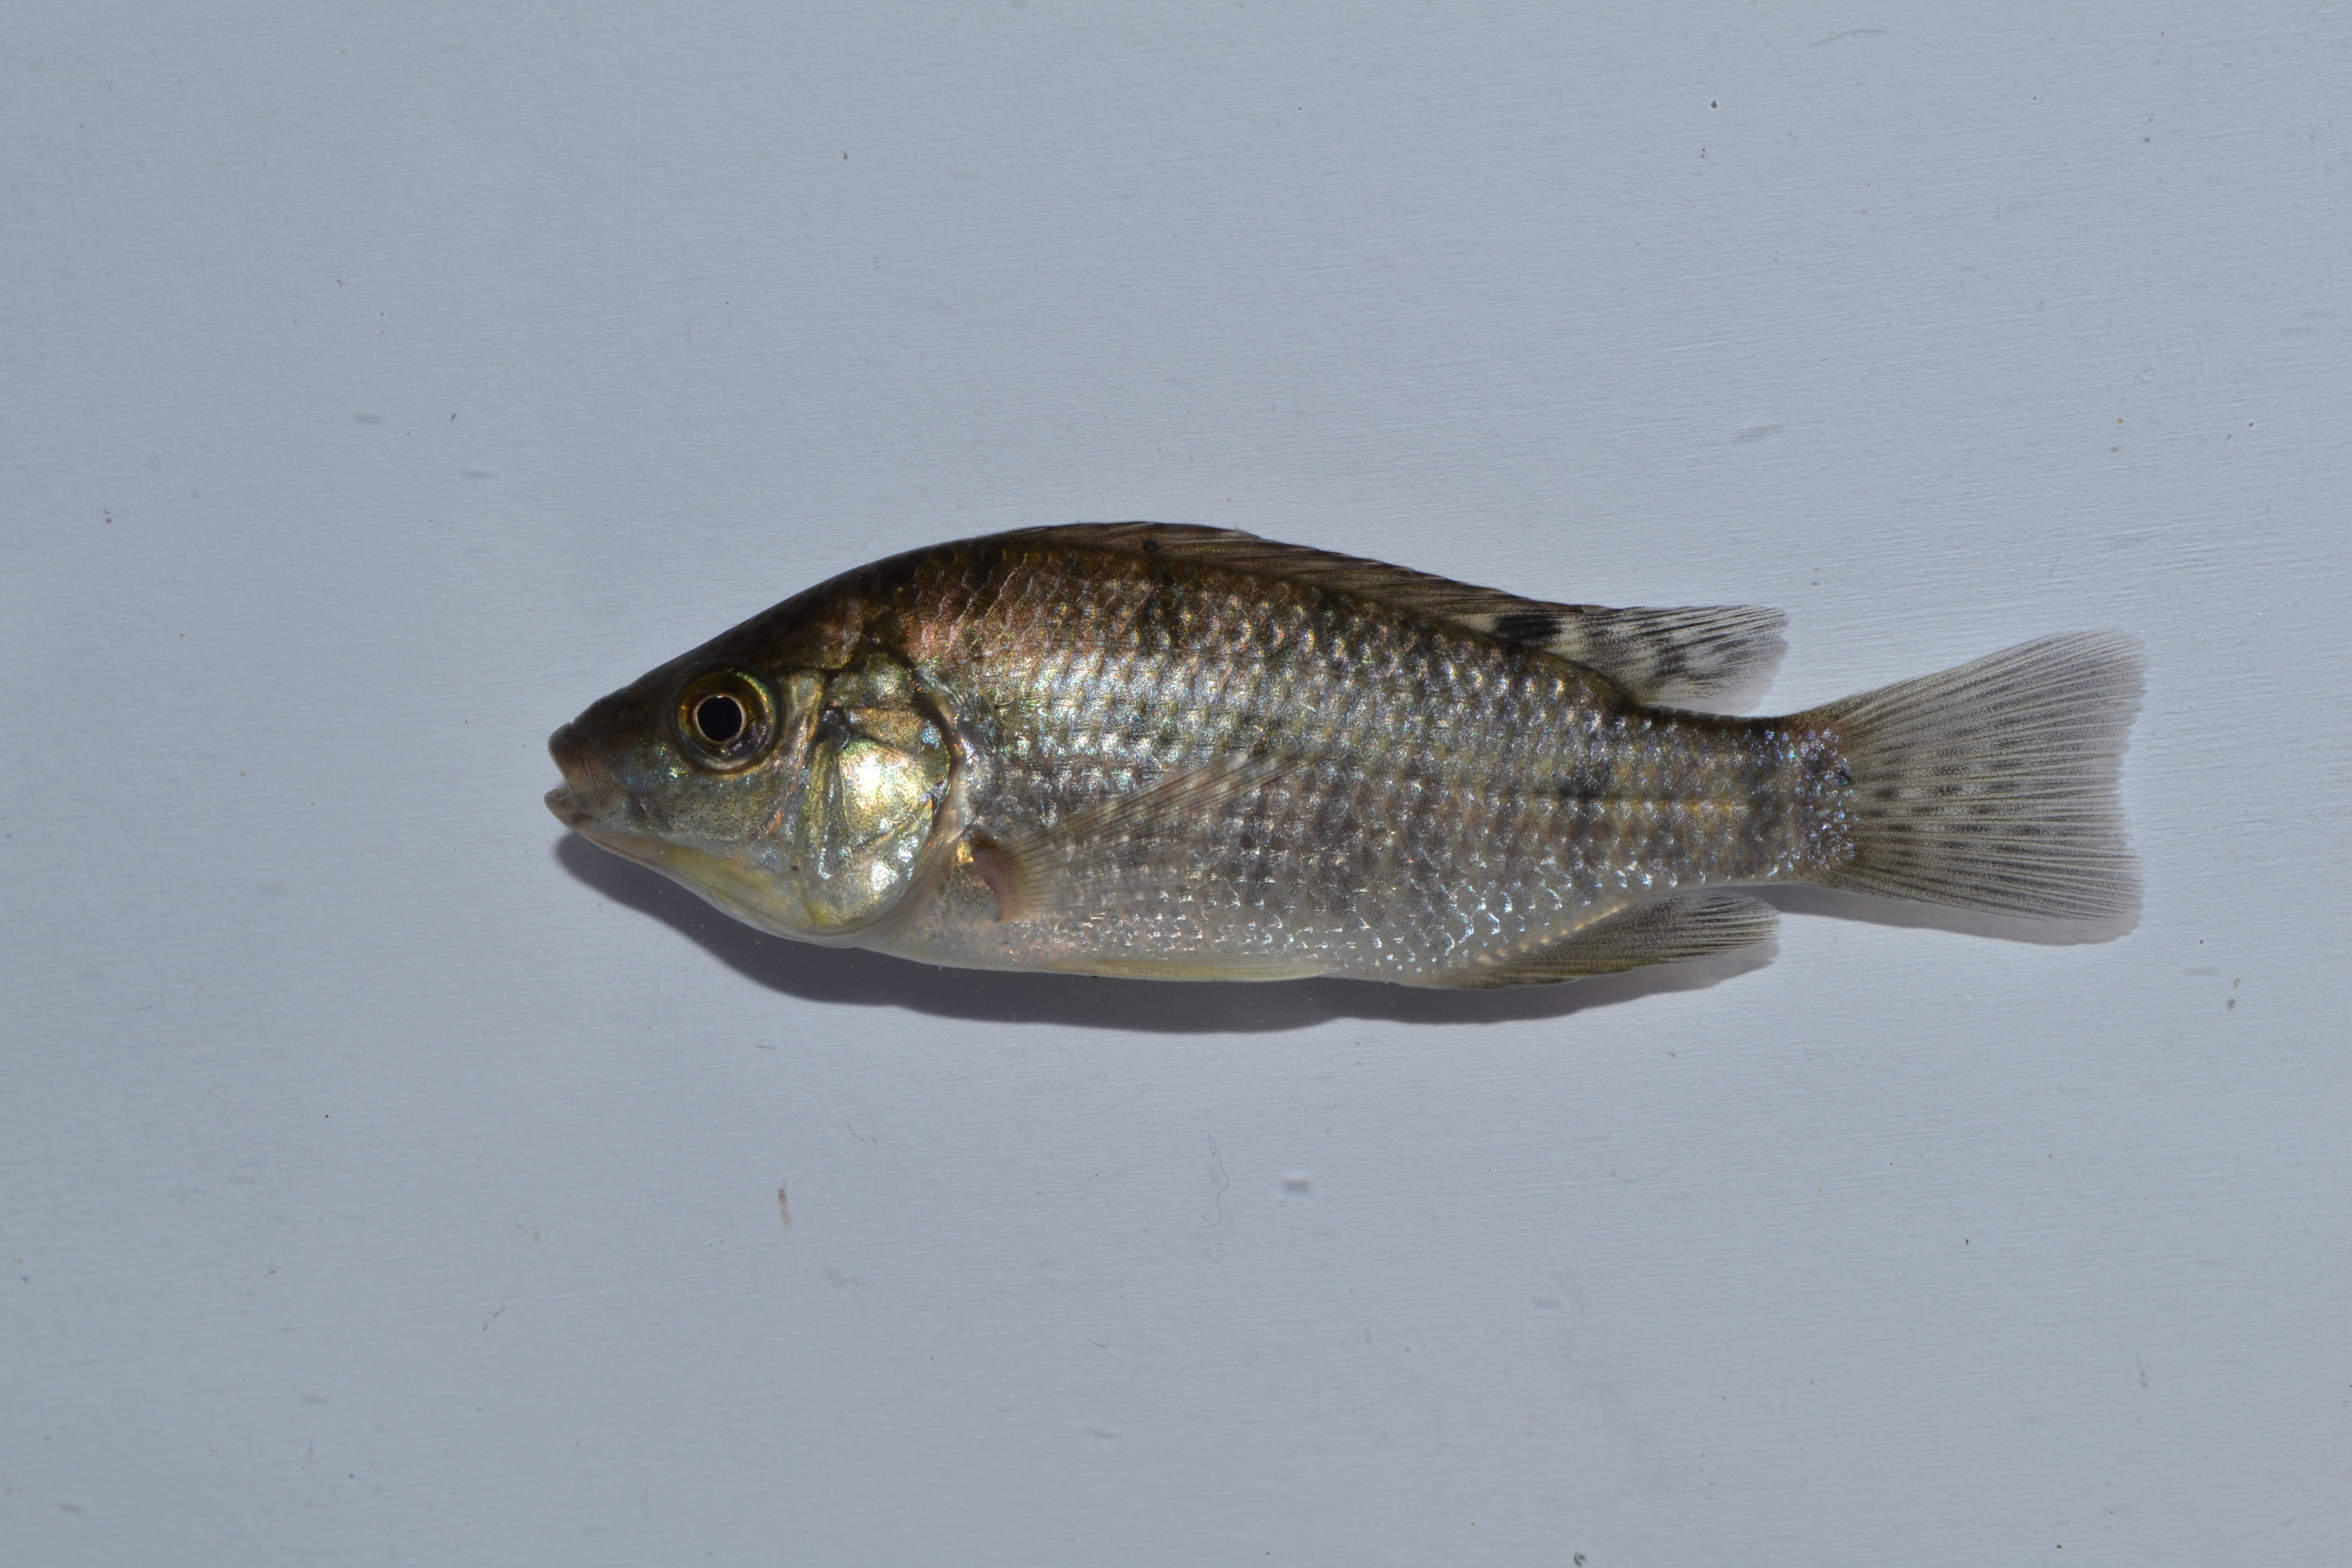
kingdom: Animalia
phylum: Chordata
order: Perciformes
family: Cichlidae
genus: Oreochromis
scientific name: Oreochromis mossambicus
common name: Mozambique tilapia
